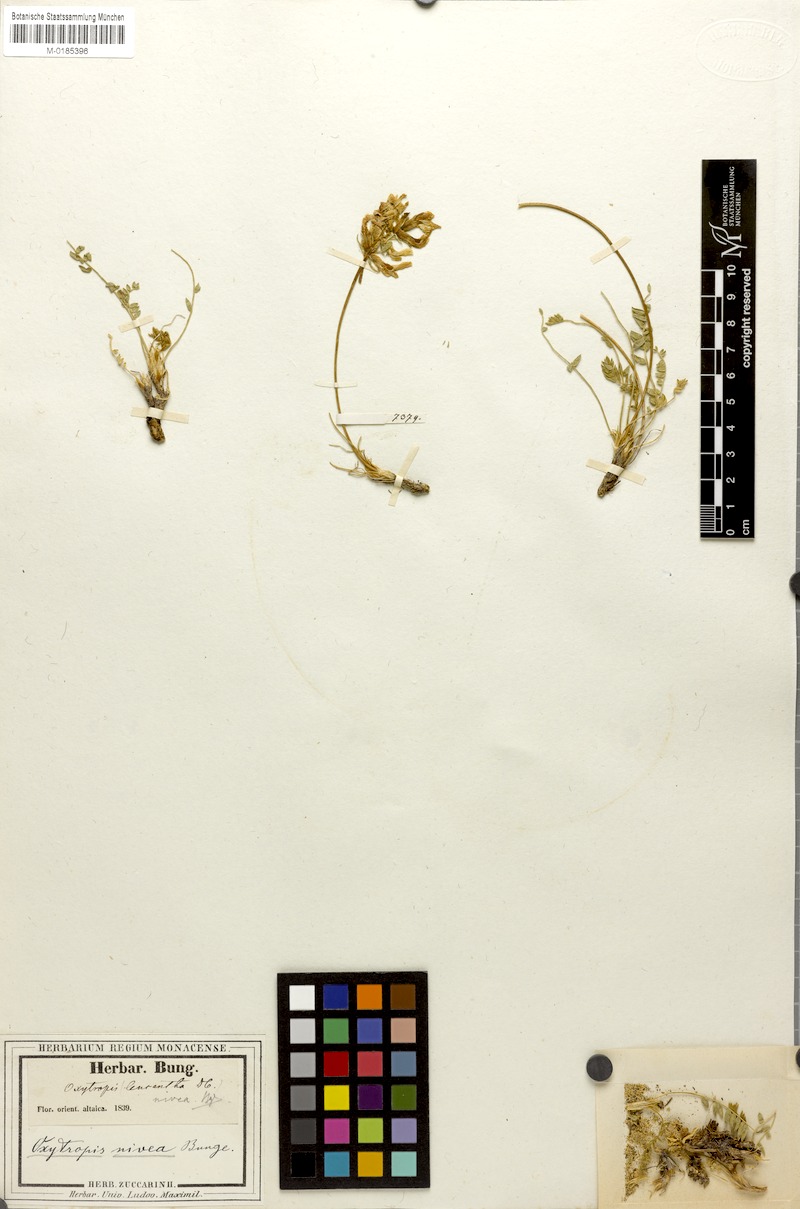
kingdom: Plantae
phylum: Tracheophyta
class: Magnoliopsida
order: Fabales
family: Fabaceae
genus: Oxytropis
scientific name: Oxytropis nivea
